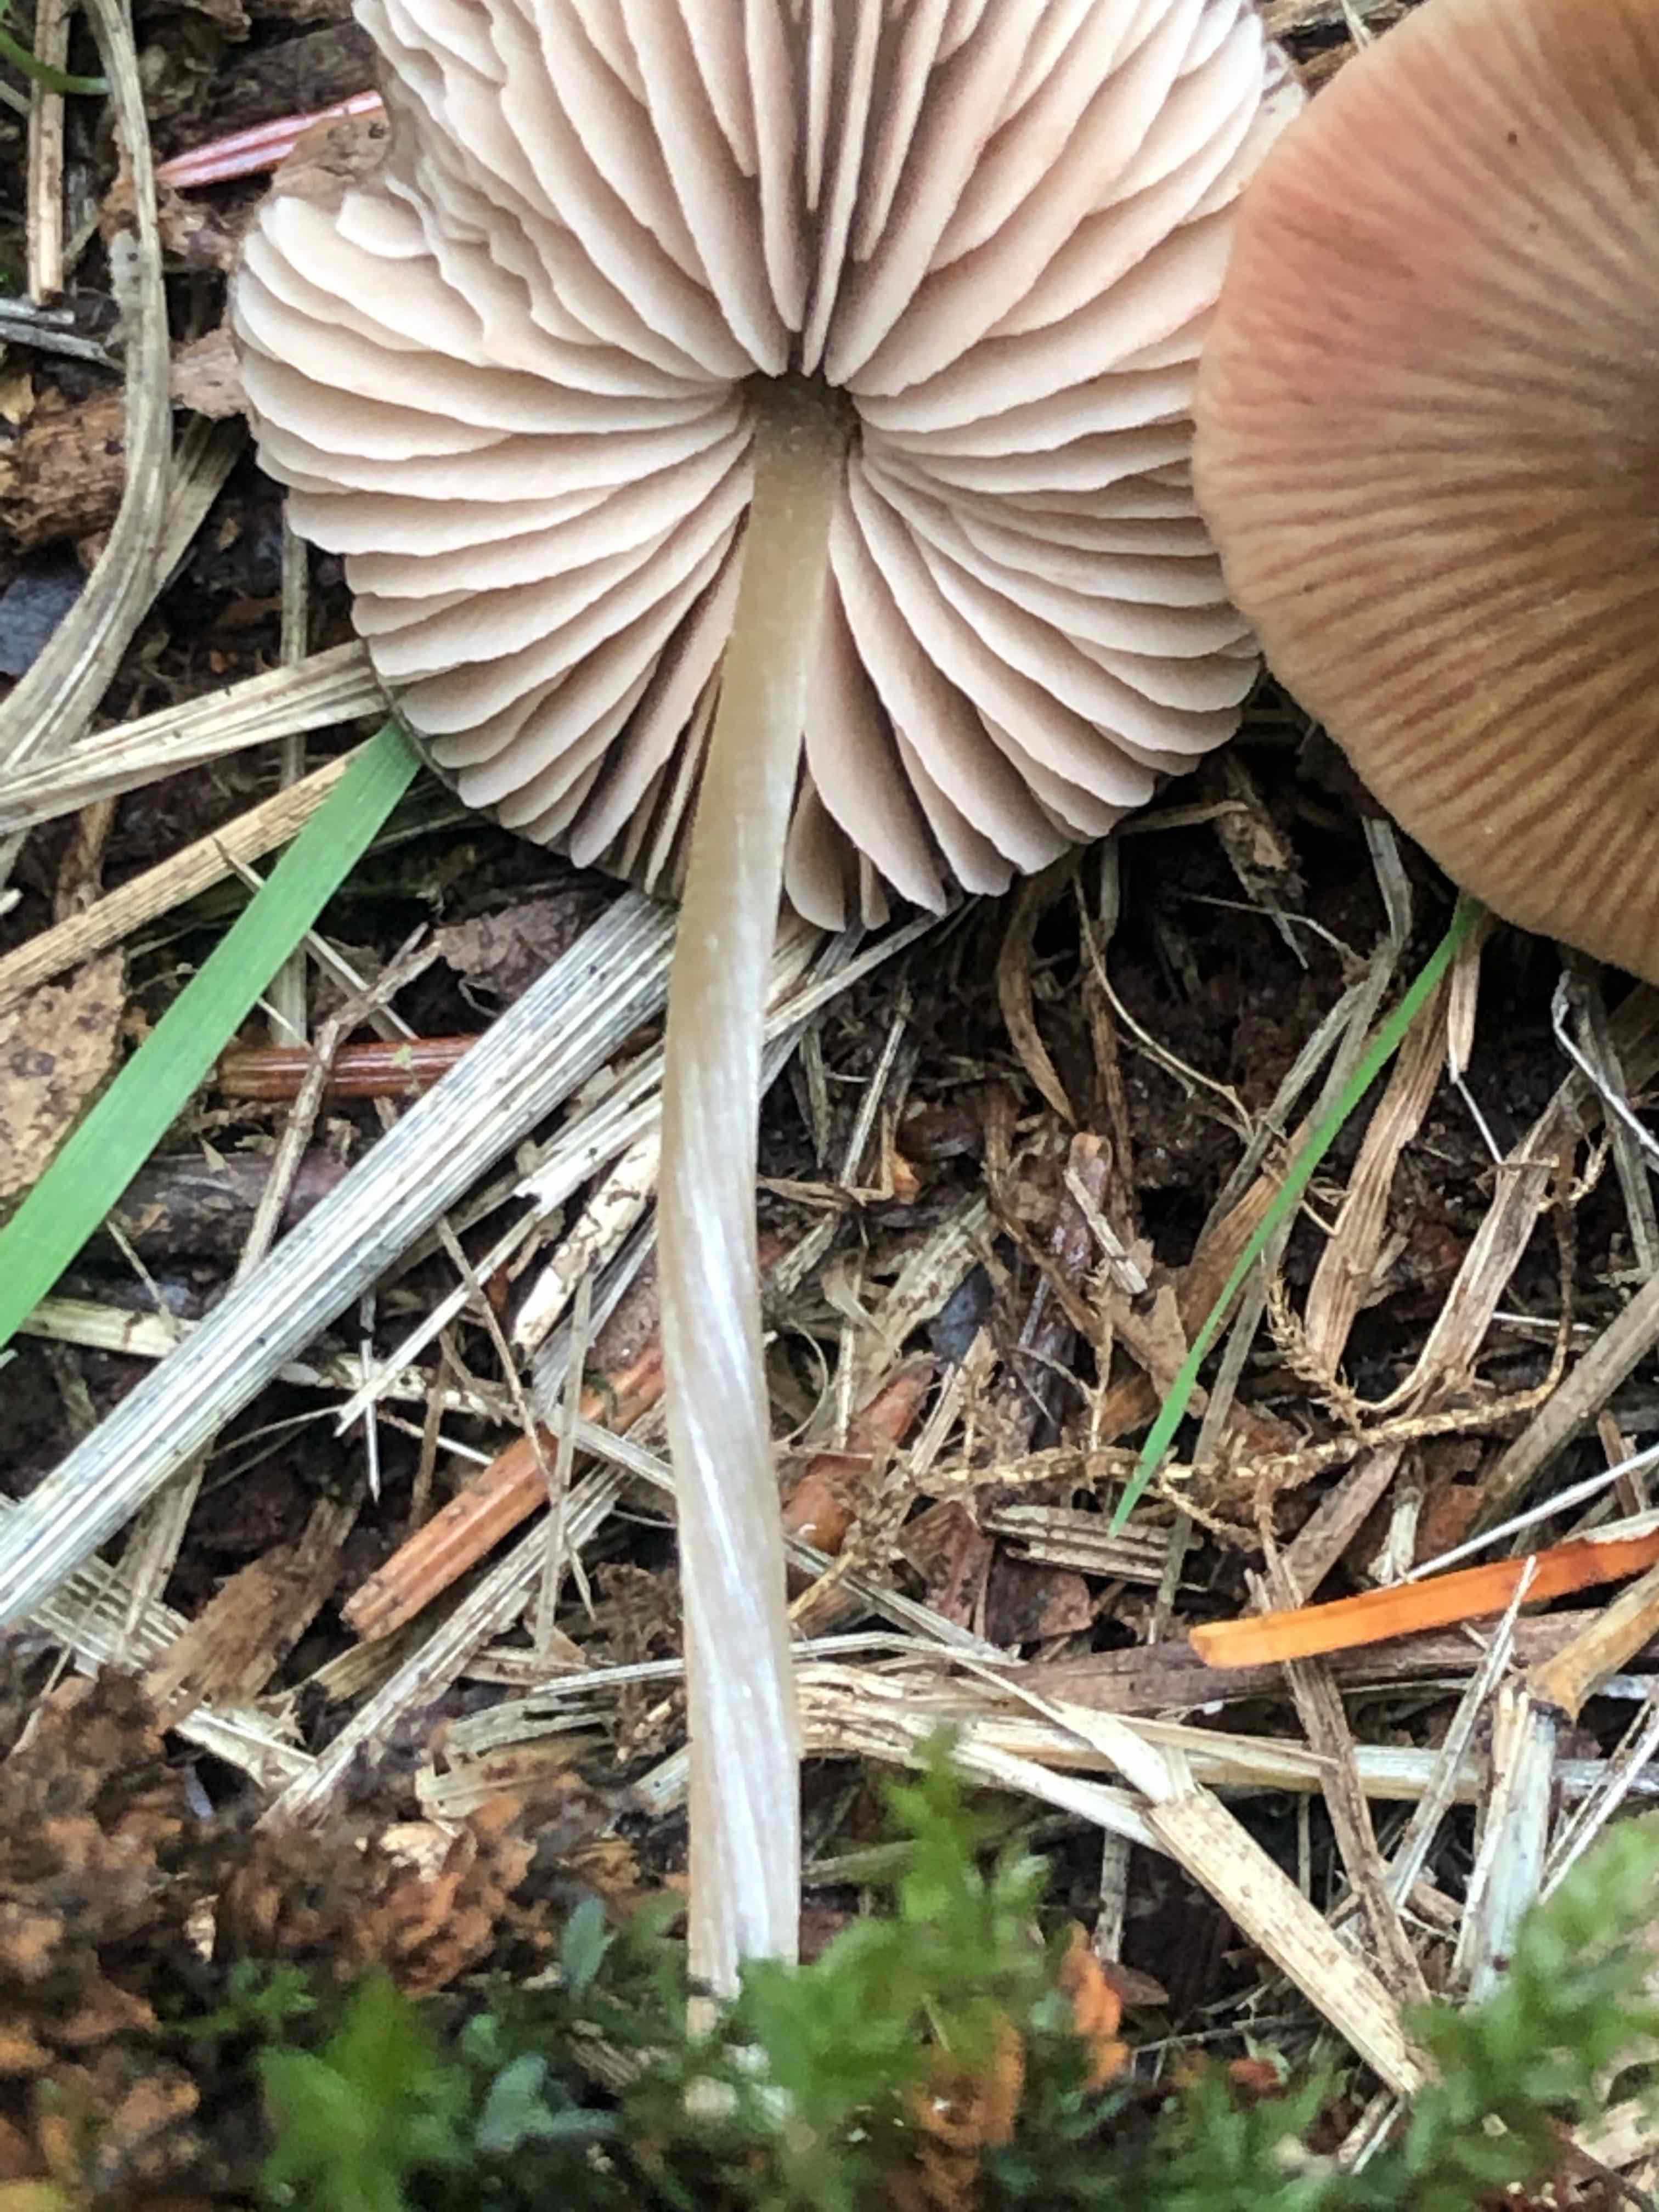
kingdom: Fungi
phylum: Basidiomycota
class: Agaricomycetes
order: Agaricales
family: Entolomataceae
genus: Entoloma
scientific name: Entoloma
